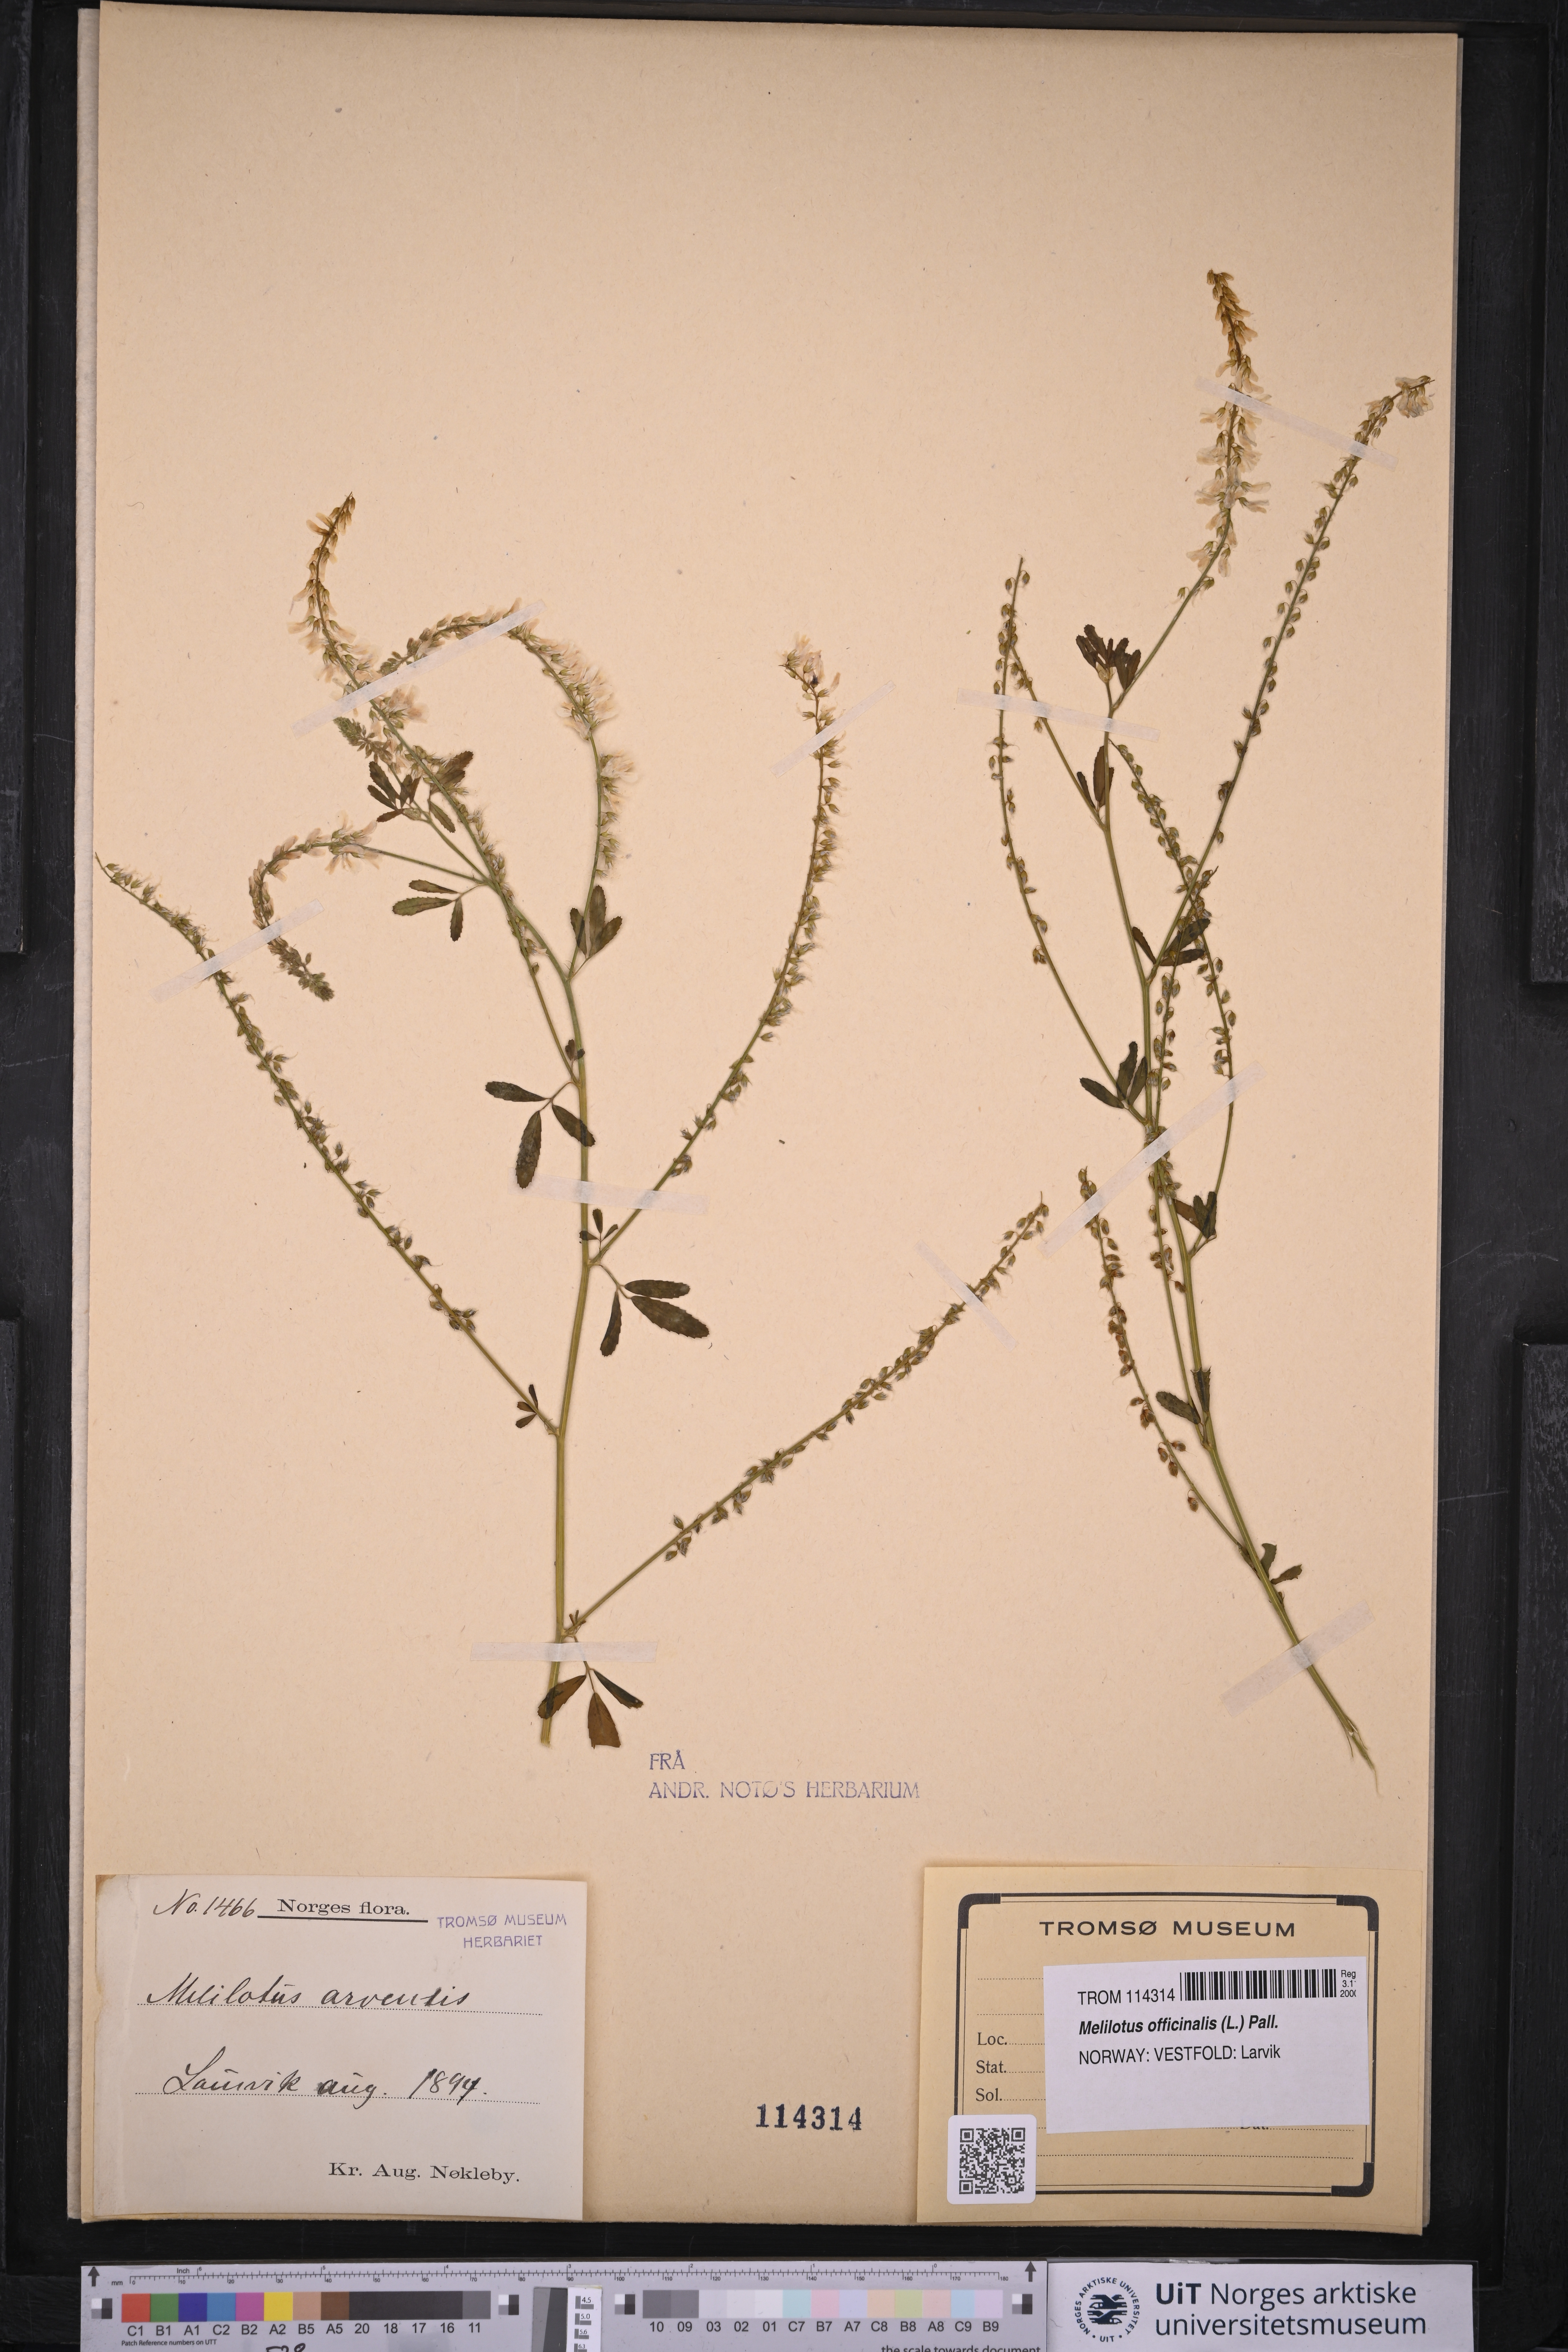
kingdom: Plantae
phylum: Tracheophyta
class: Magnoliopsida
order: Fabales
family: Fabaceae
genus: Melilotus
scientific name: Melilotus officinalis
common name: Sweetclover
